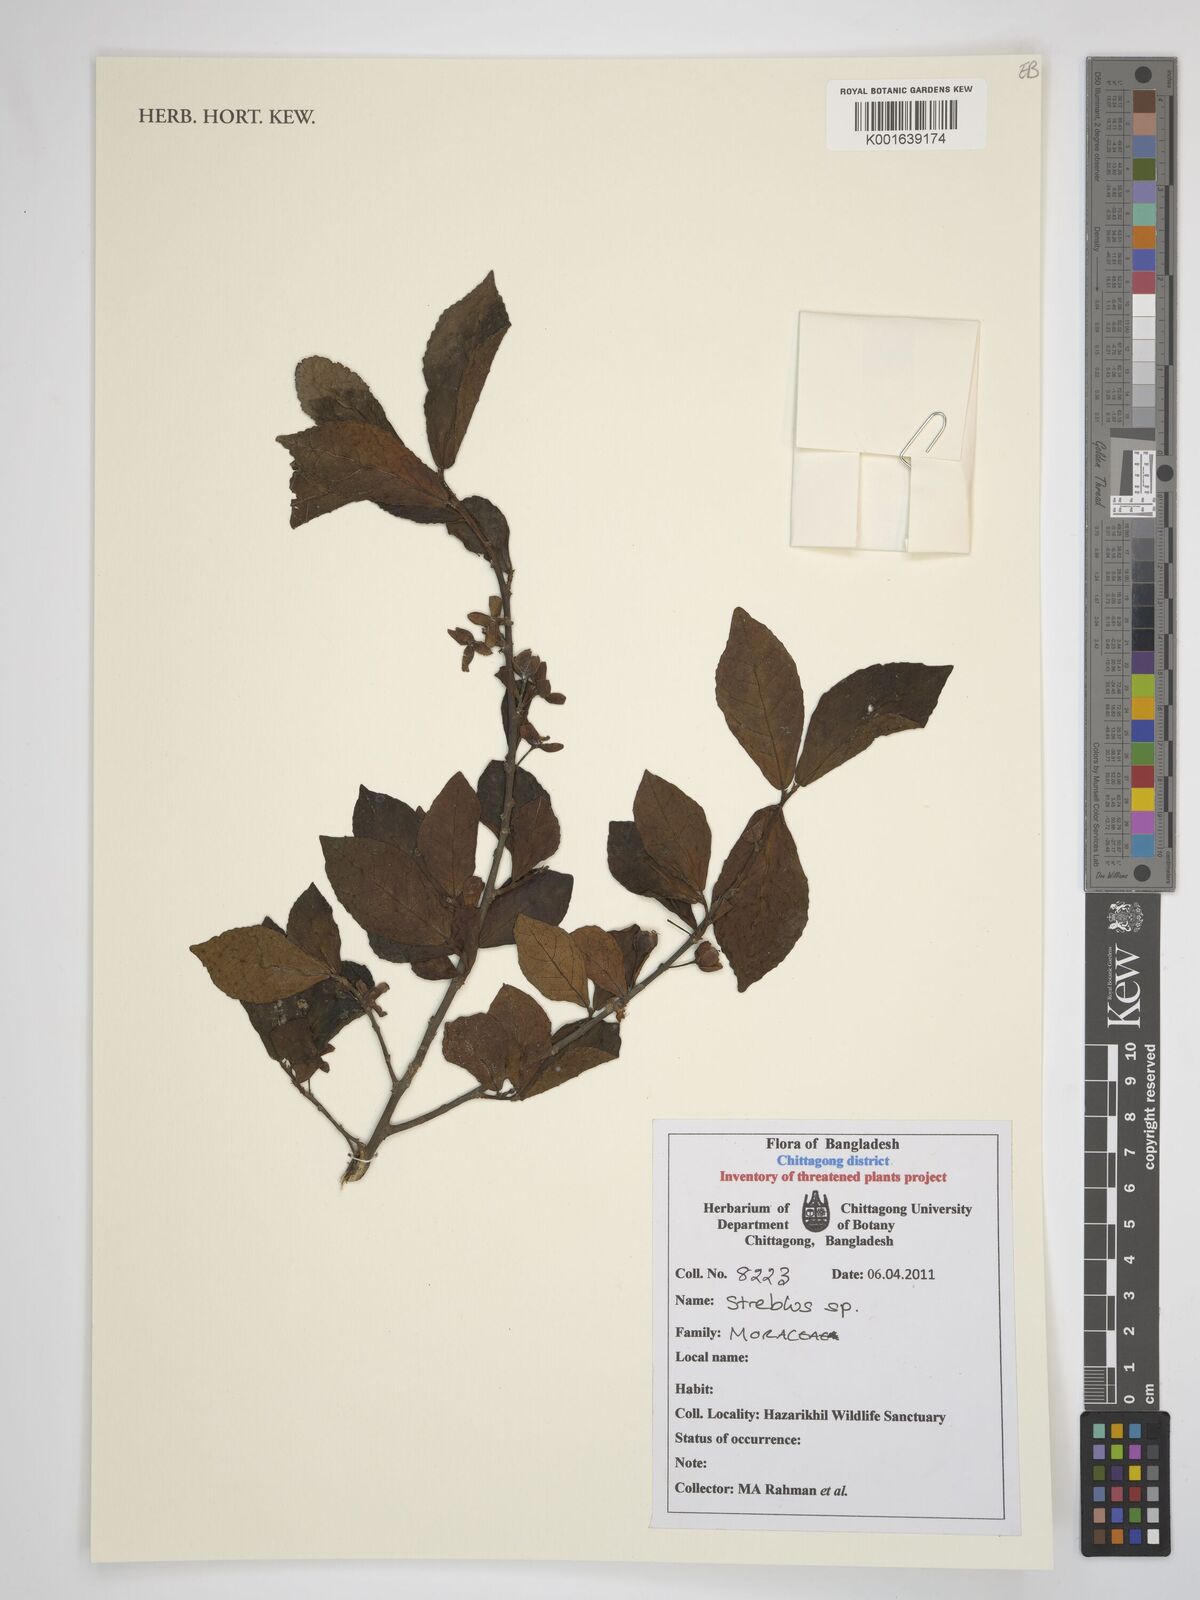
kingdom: Plantae
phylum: Tracheophyta
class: Magnoliopsida
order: Rosales
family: Moraceae
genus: Streblus
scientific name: Streblus
